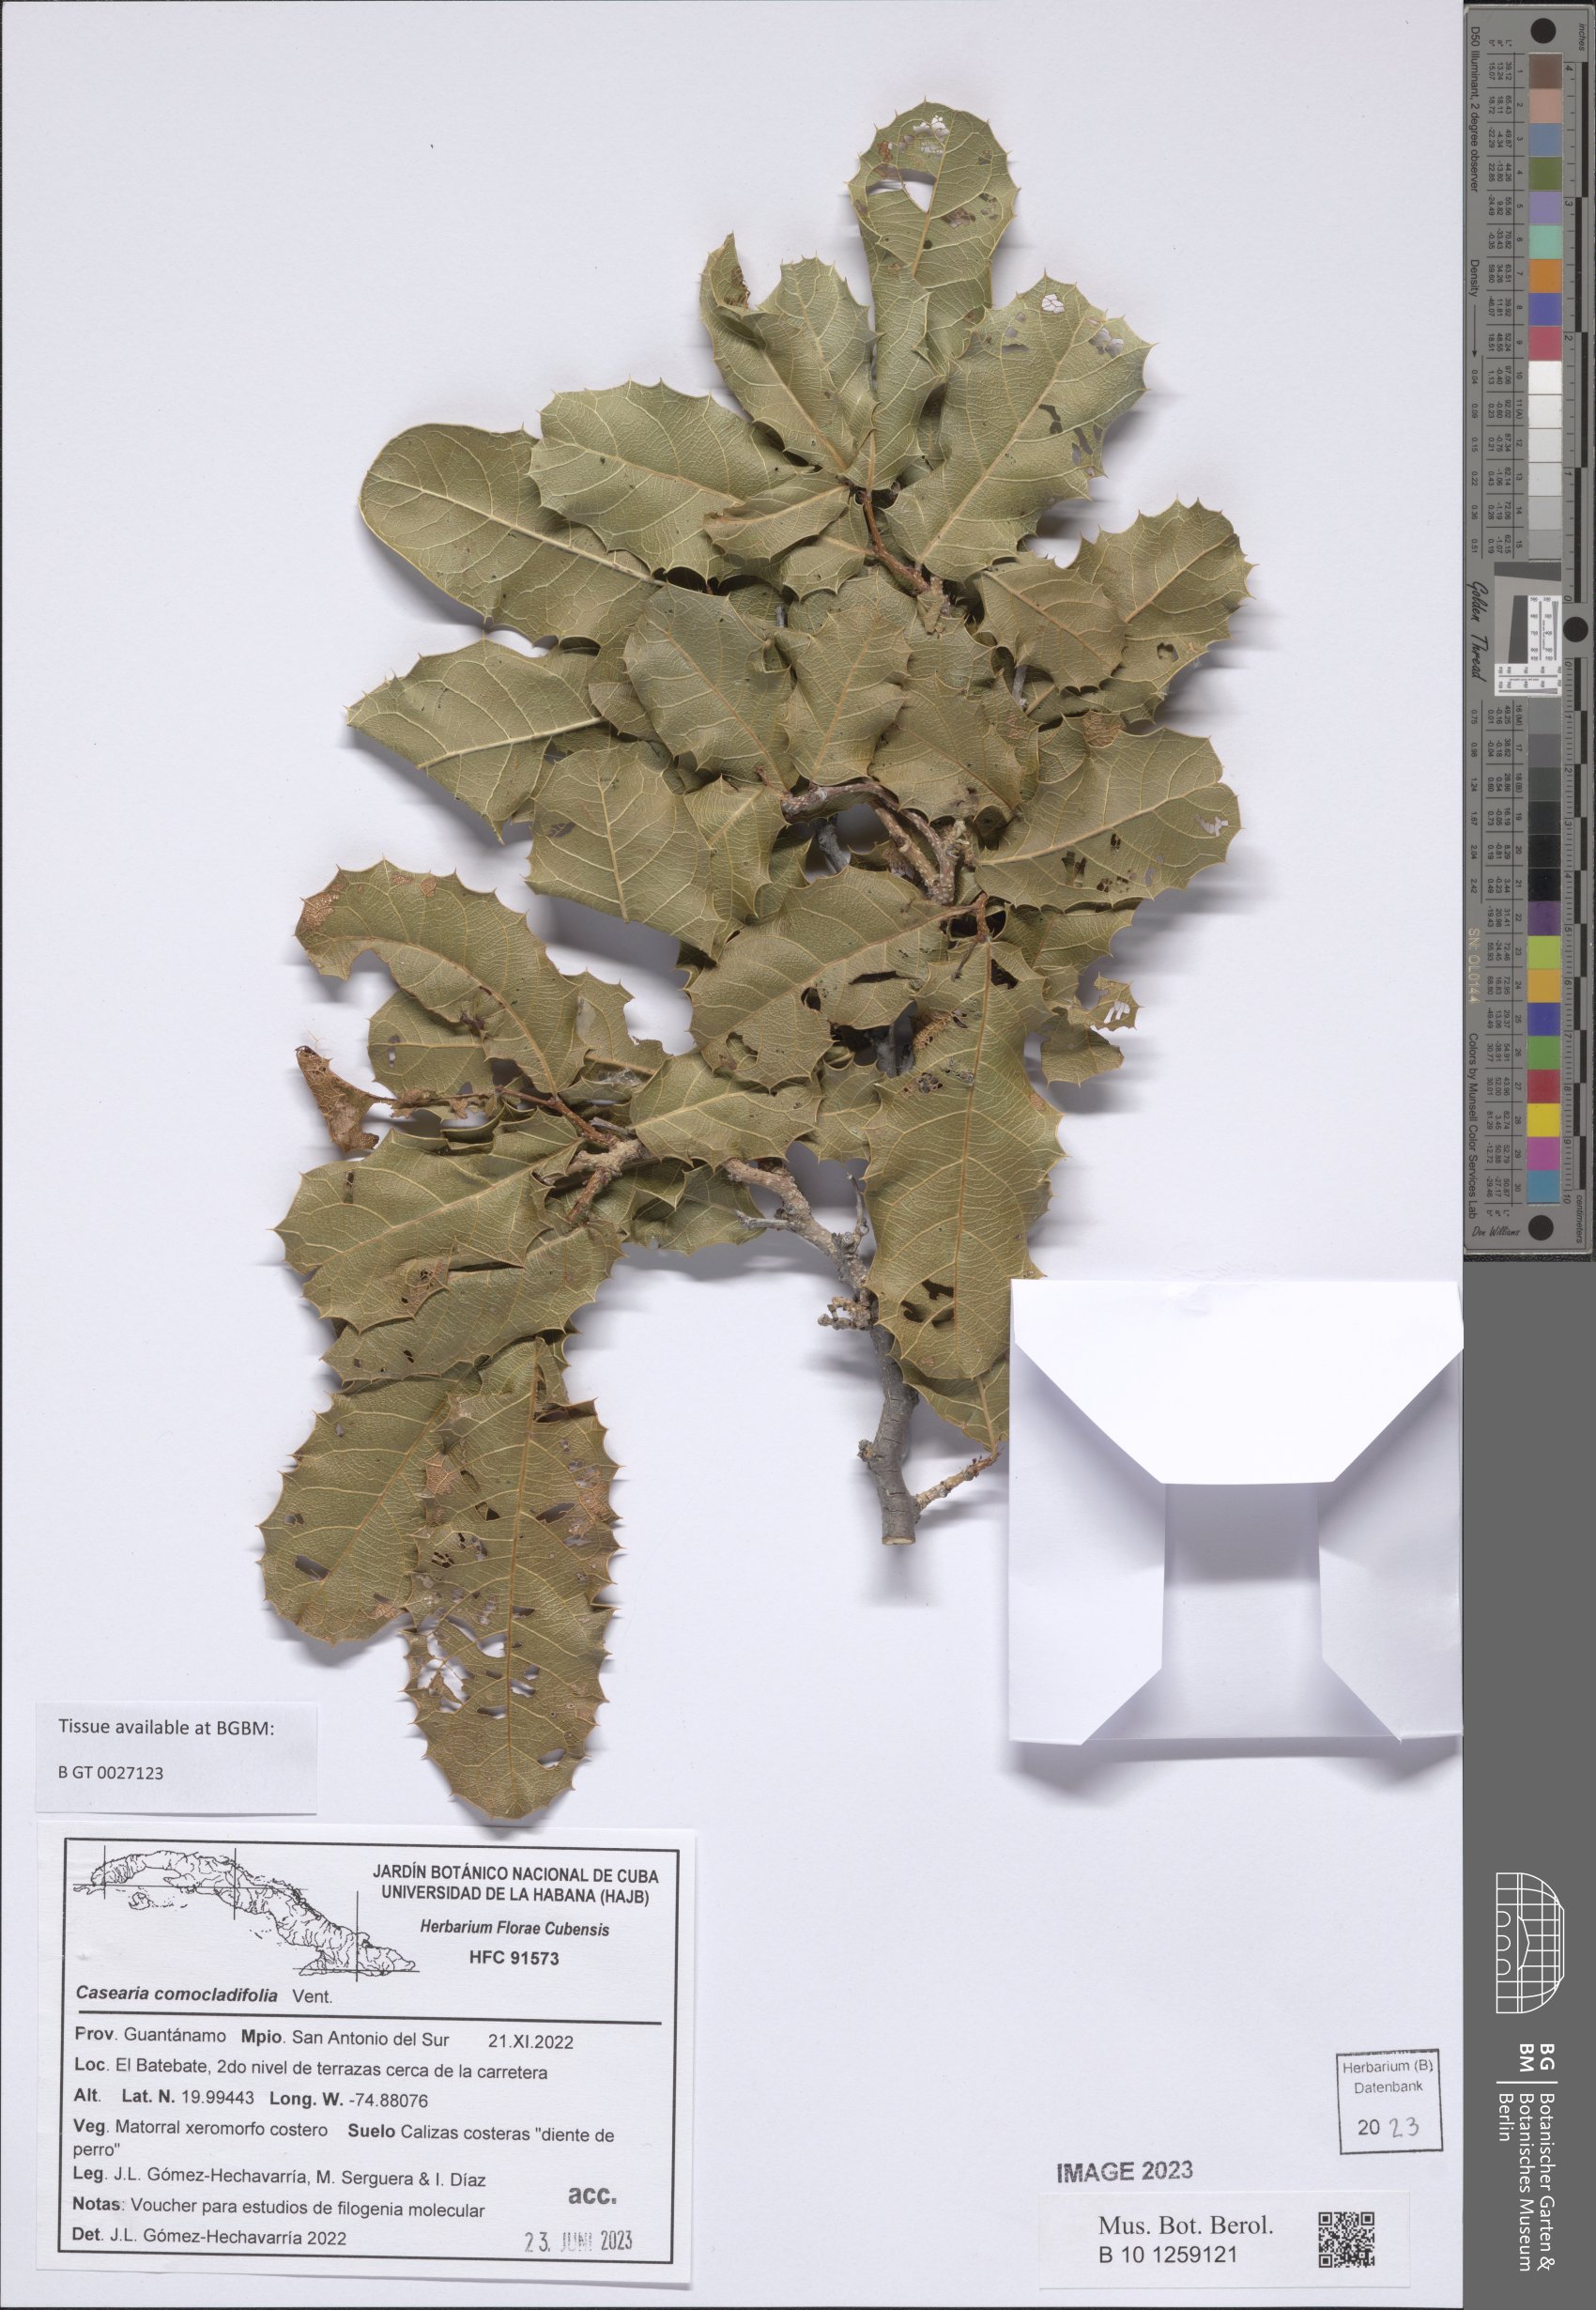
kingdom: Plantae
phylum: Tracheophyta
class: Magnoliopsida
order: Malpighiales
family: Salicaceae
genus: Casearia
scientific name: Casearia comocladifolia
